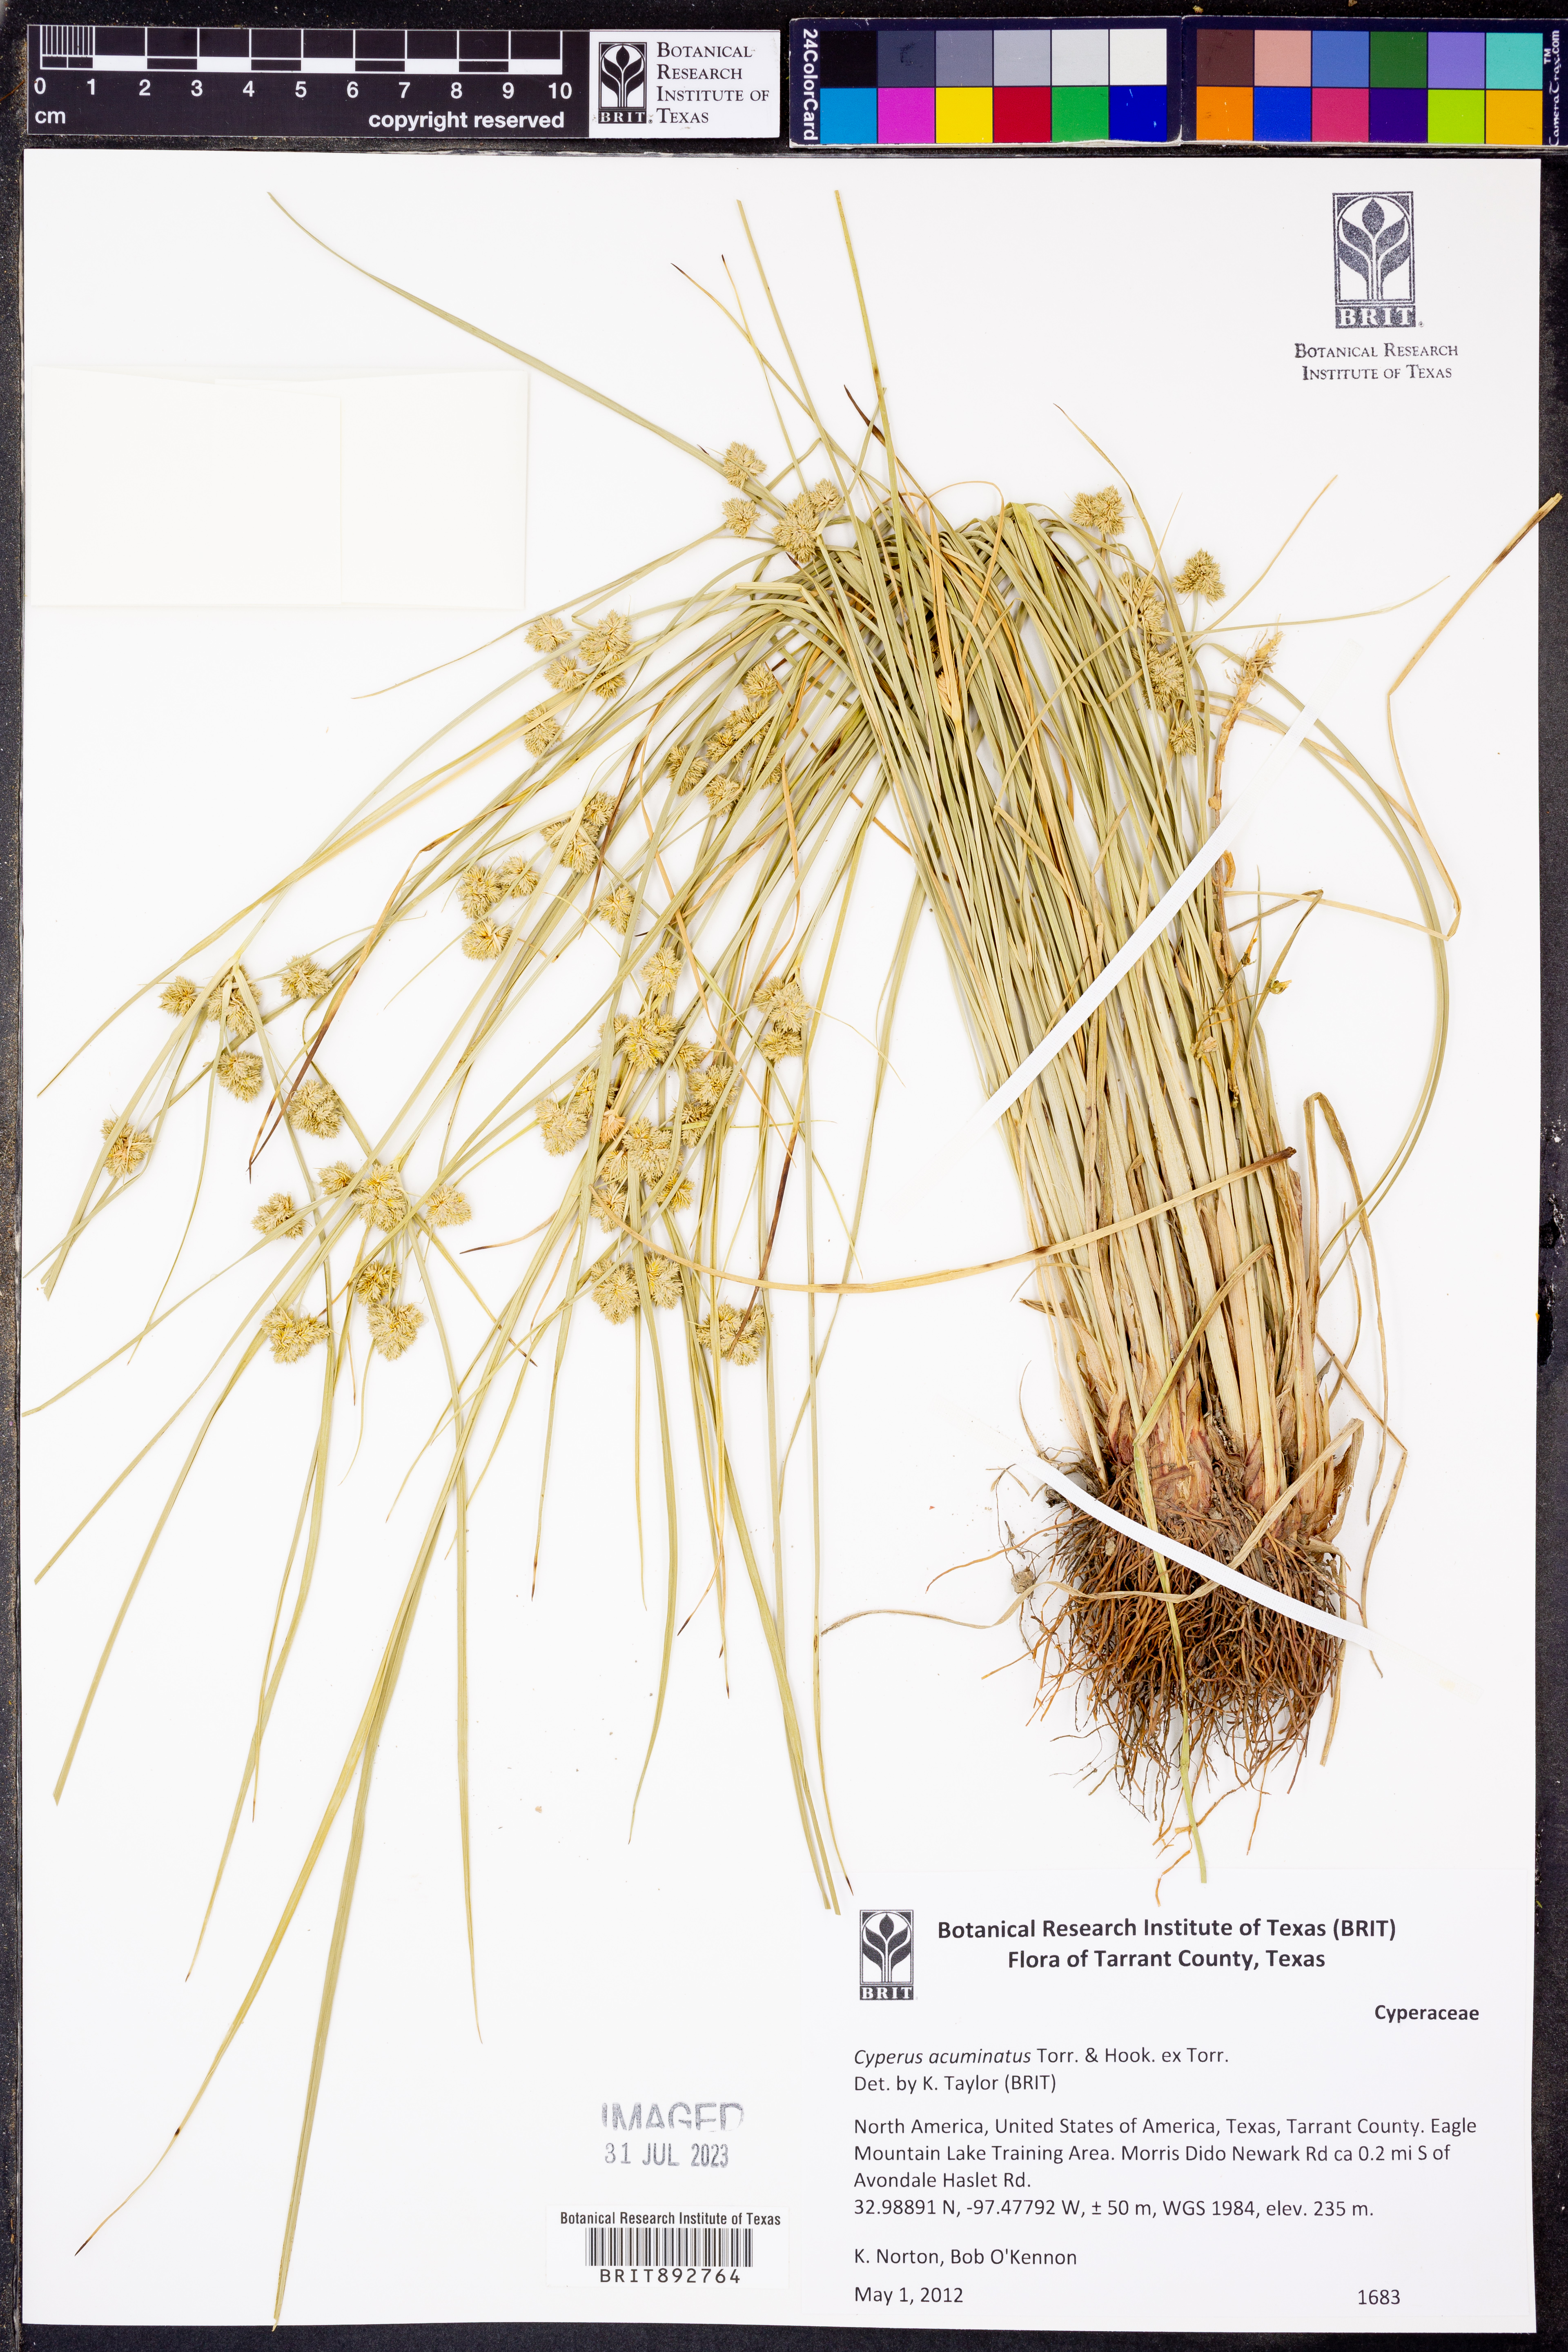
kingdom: Plantae
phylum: Tracheophyta
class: Liliopsida
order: Poales
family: Cyperaceae
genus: Cyperus
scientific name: Cyperus acuminatus
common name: Short-pointed cyperus
